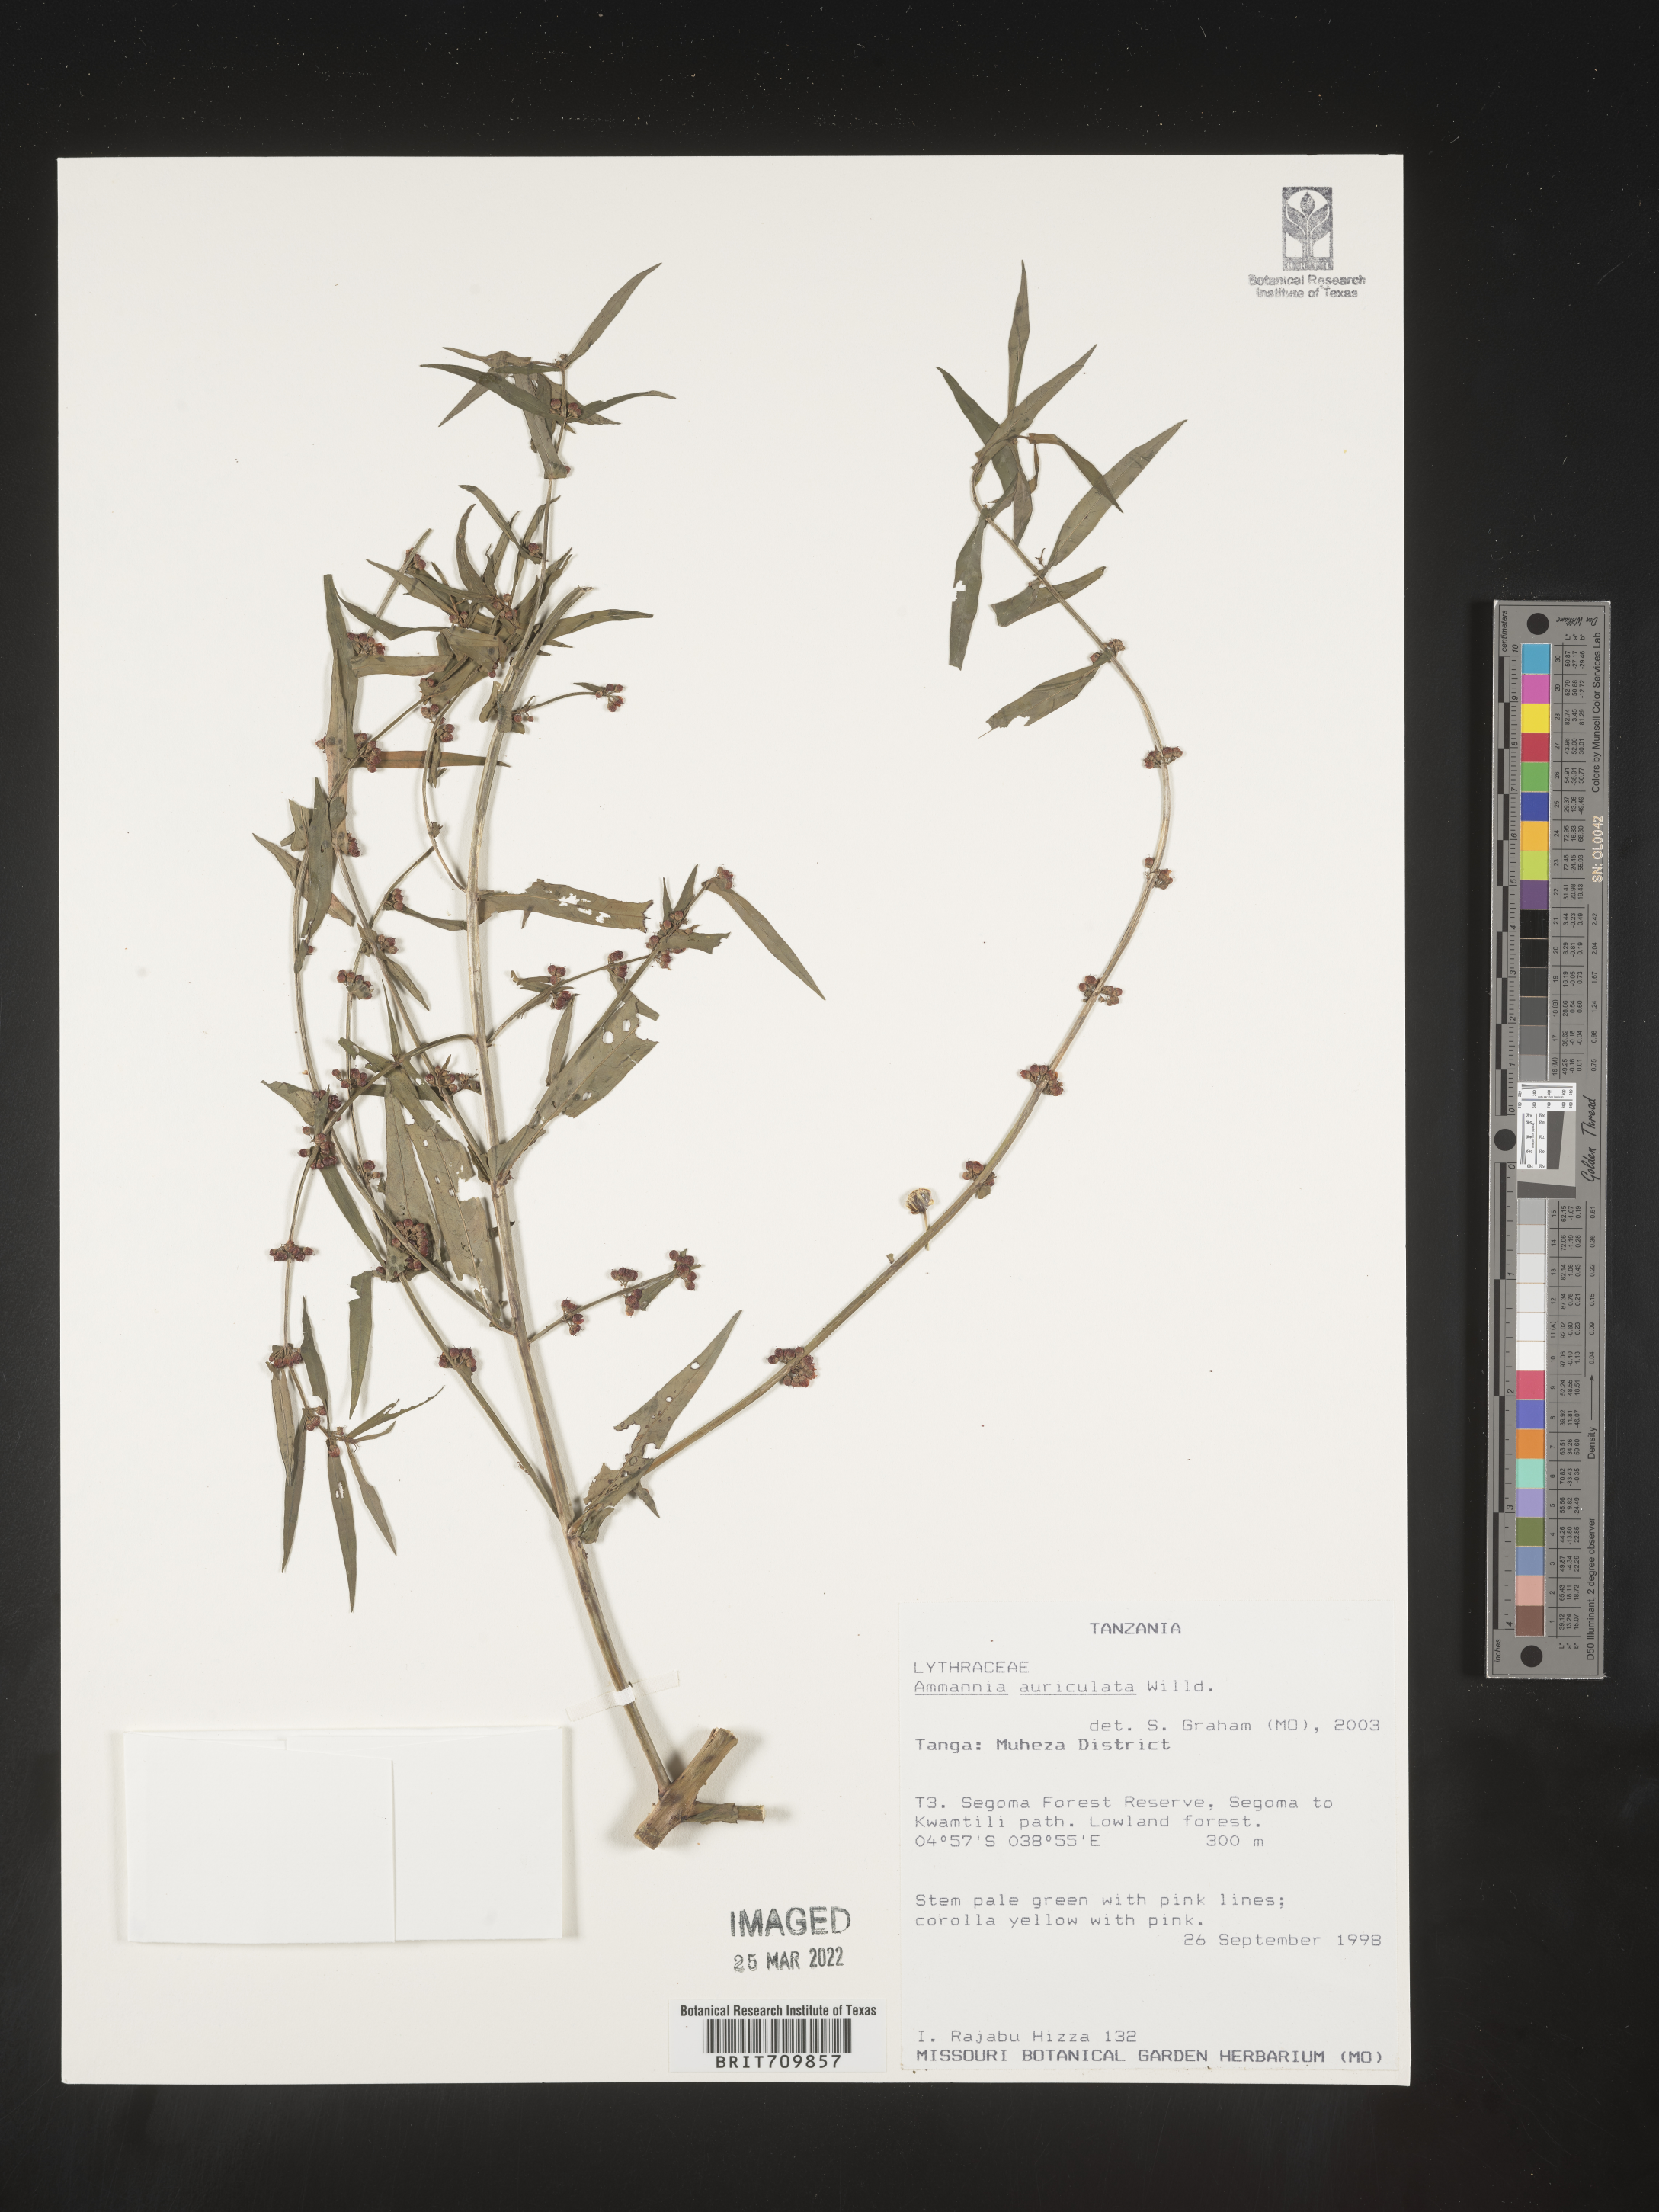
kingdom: Plantae
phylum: Tracheophyta
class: Magnoliopsida
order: Myrtales
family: Lythraceae
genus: Ammannia
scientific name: Ammannia
